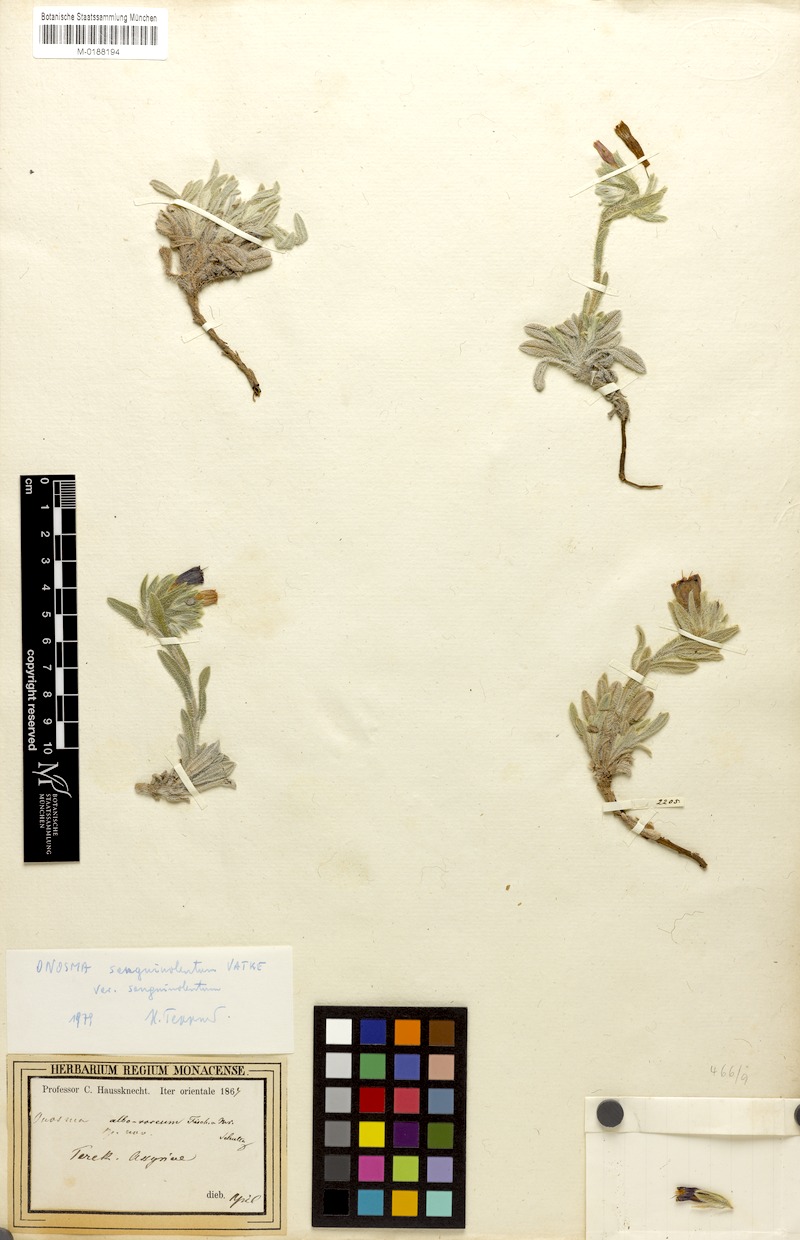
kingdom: Plantae
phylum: Tracheophyta
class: Magnoliopsida
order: Boraginales
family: Boraginaceae
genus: Onosma
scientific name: Onosma sanguinolenta
